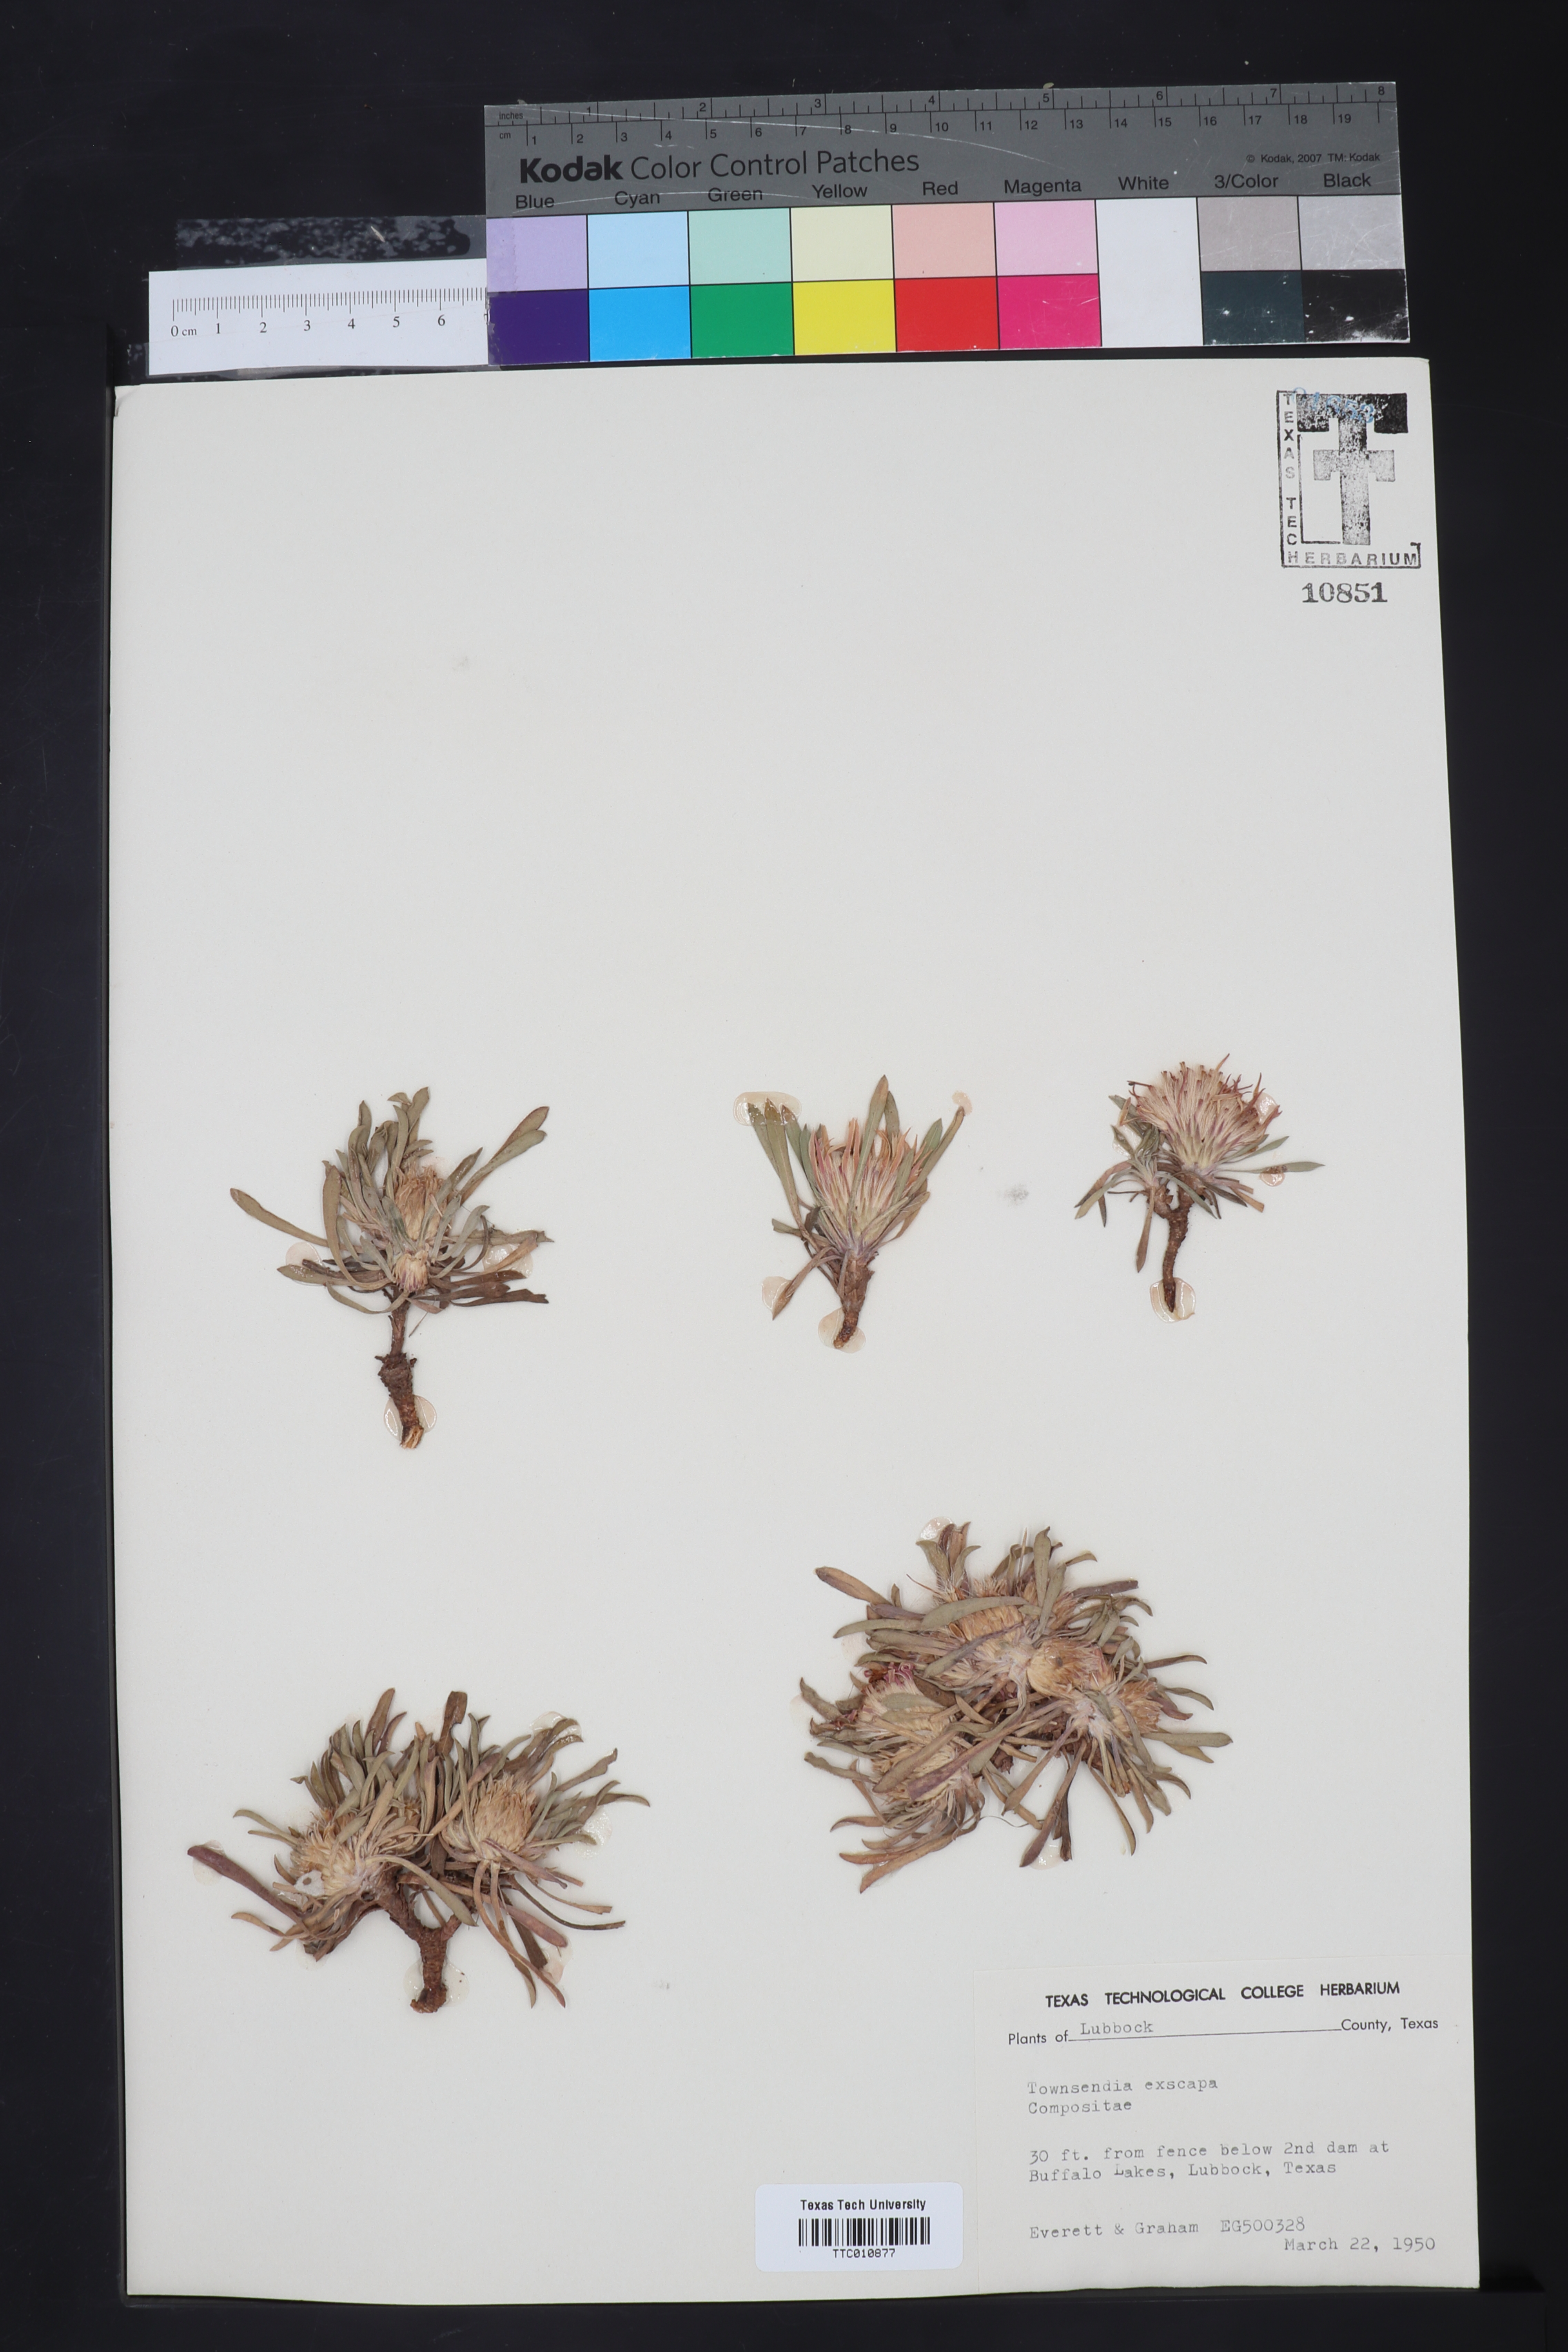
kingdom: Plantae
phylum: Tracheophyta
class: Magnoliopsida
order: Asterales
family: Asteraceae
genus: Townsendia
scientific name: Townsendia exscapa
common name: Dwarf townsendia
